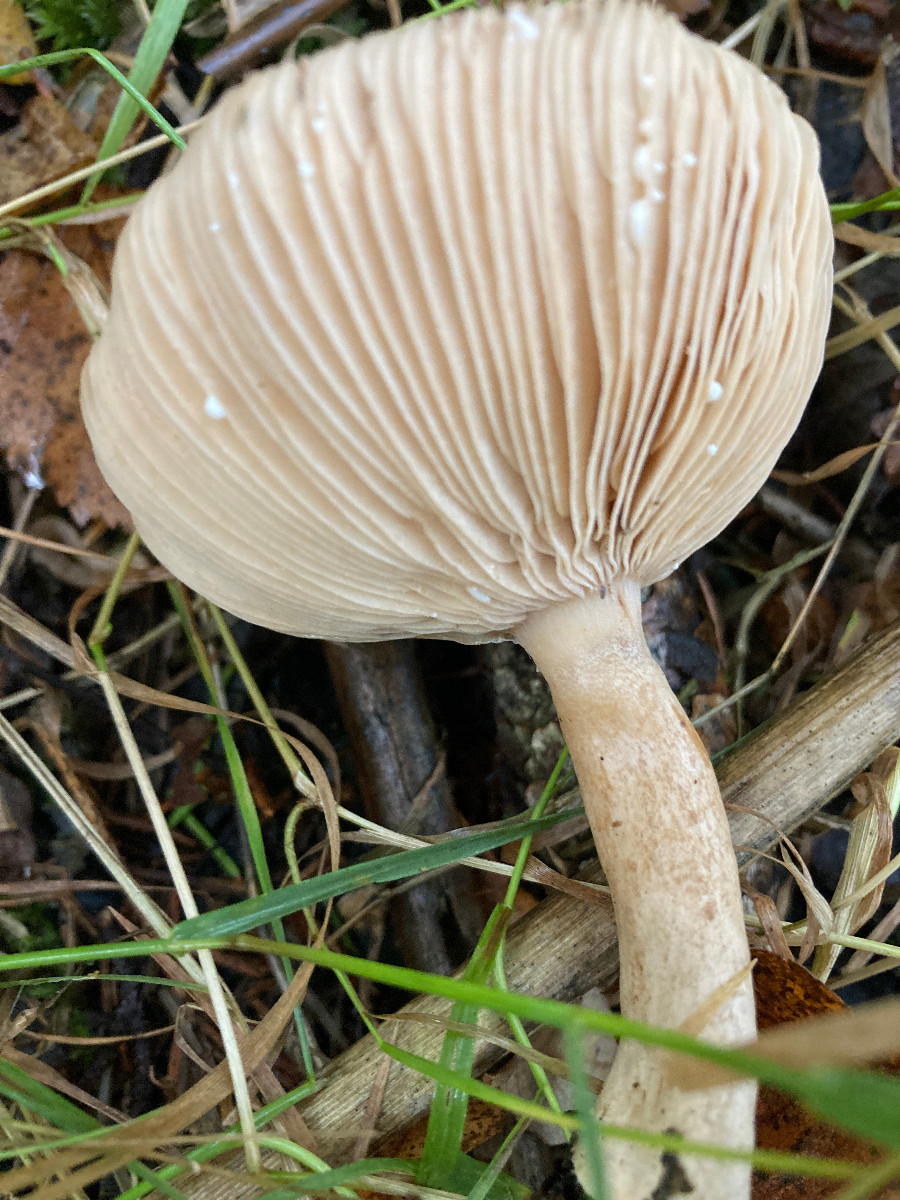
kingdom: Fungi
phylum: Basidiomycota
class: Agaricomycetes
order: Russulales
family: Russulaceae
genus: Lactarius
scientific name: Lactarius vietus
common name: violetgrå mælkehat
